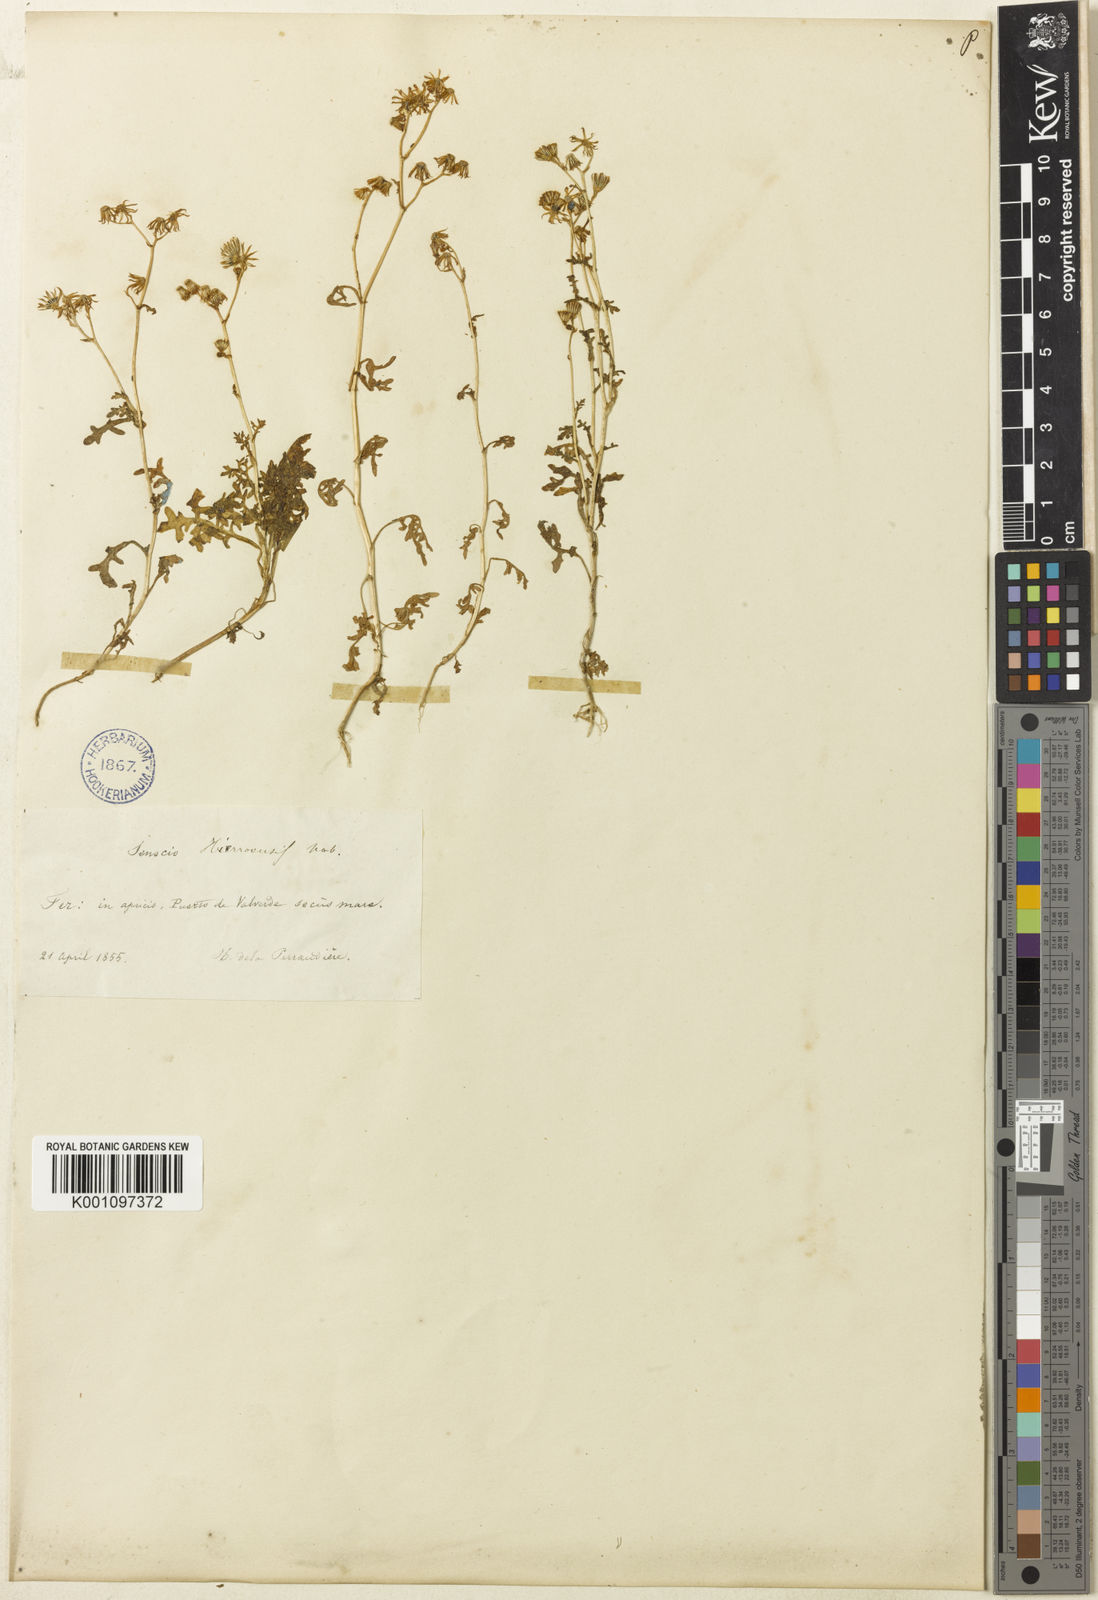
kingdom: Plantae
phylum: Tracheophyta
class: Magnoliopsida
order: Asterales
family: Asteraceae
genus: Senecio
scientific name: Senecio
